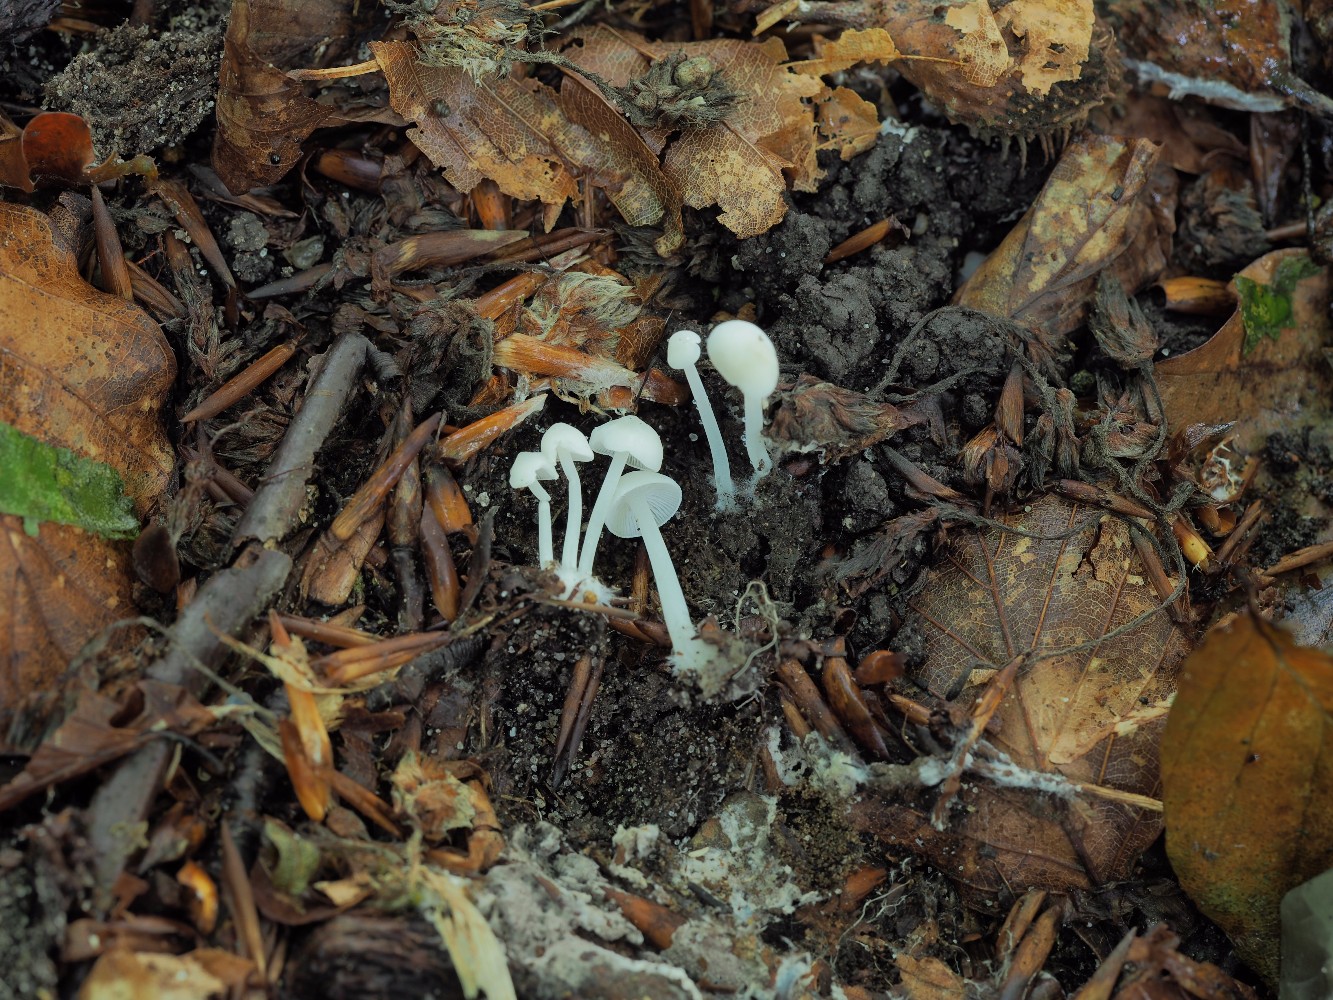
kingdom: Fungi
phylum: Basidiomycota
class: Agaricomycetes
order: Agaricales
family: Mycenaceae
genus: Hemimycena
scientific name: Hemimycena cucullata
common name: tætbladet huesvamp
